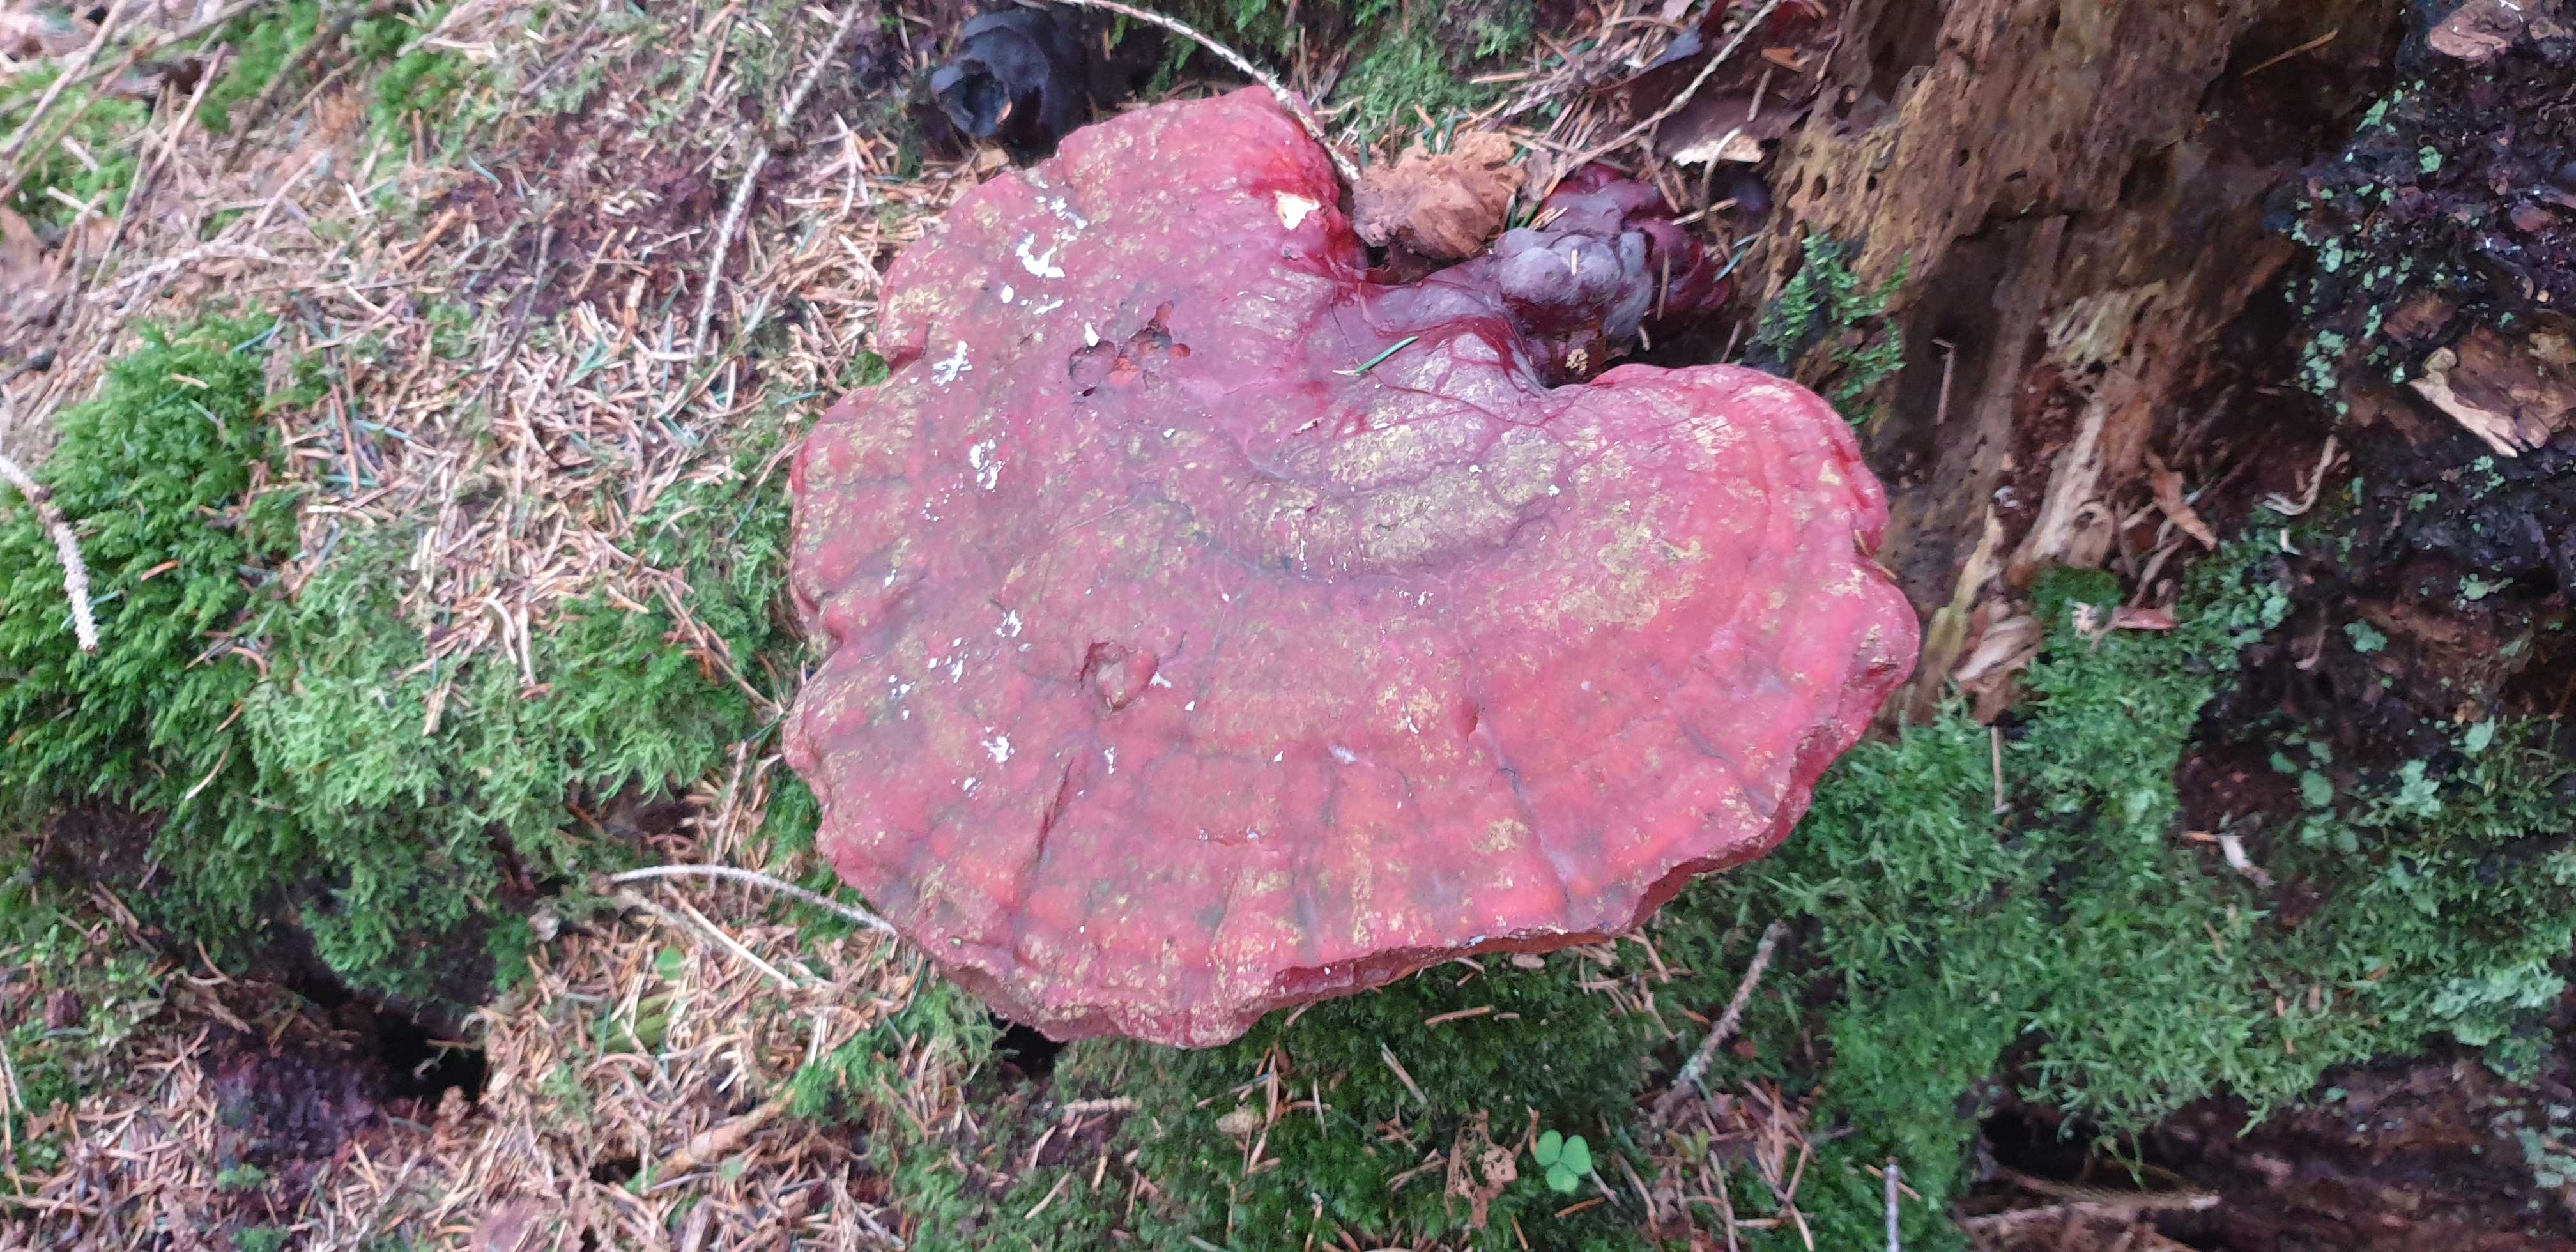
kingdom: Fungi
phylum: Basidiomycota
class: Agaricomycetes
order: Polyporales
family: Polyporaceae
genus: Ganoderma
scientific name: Ganoderma lucidum
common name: skinnende lakporesvamp
